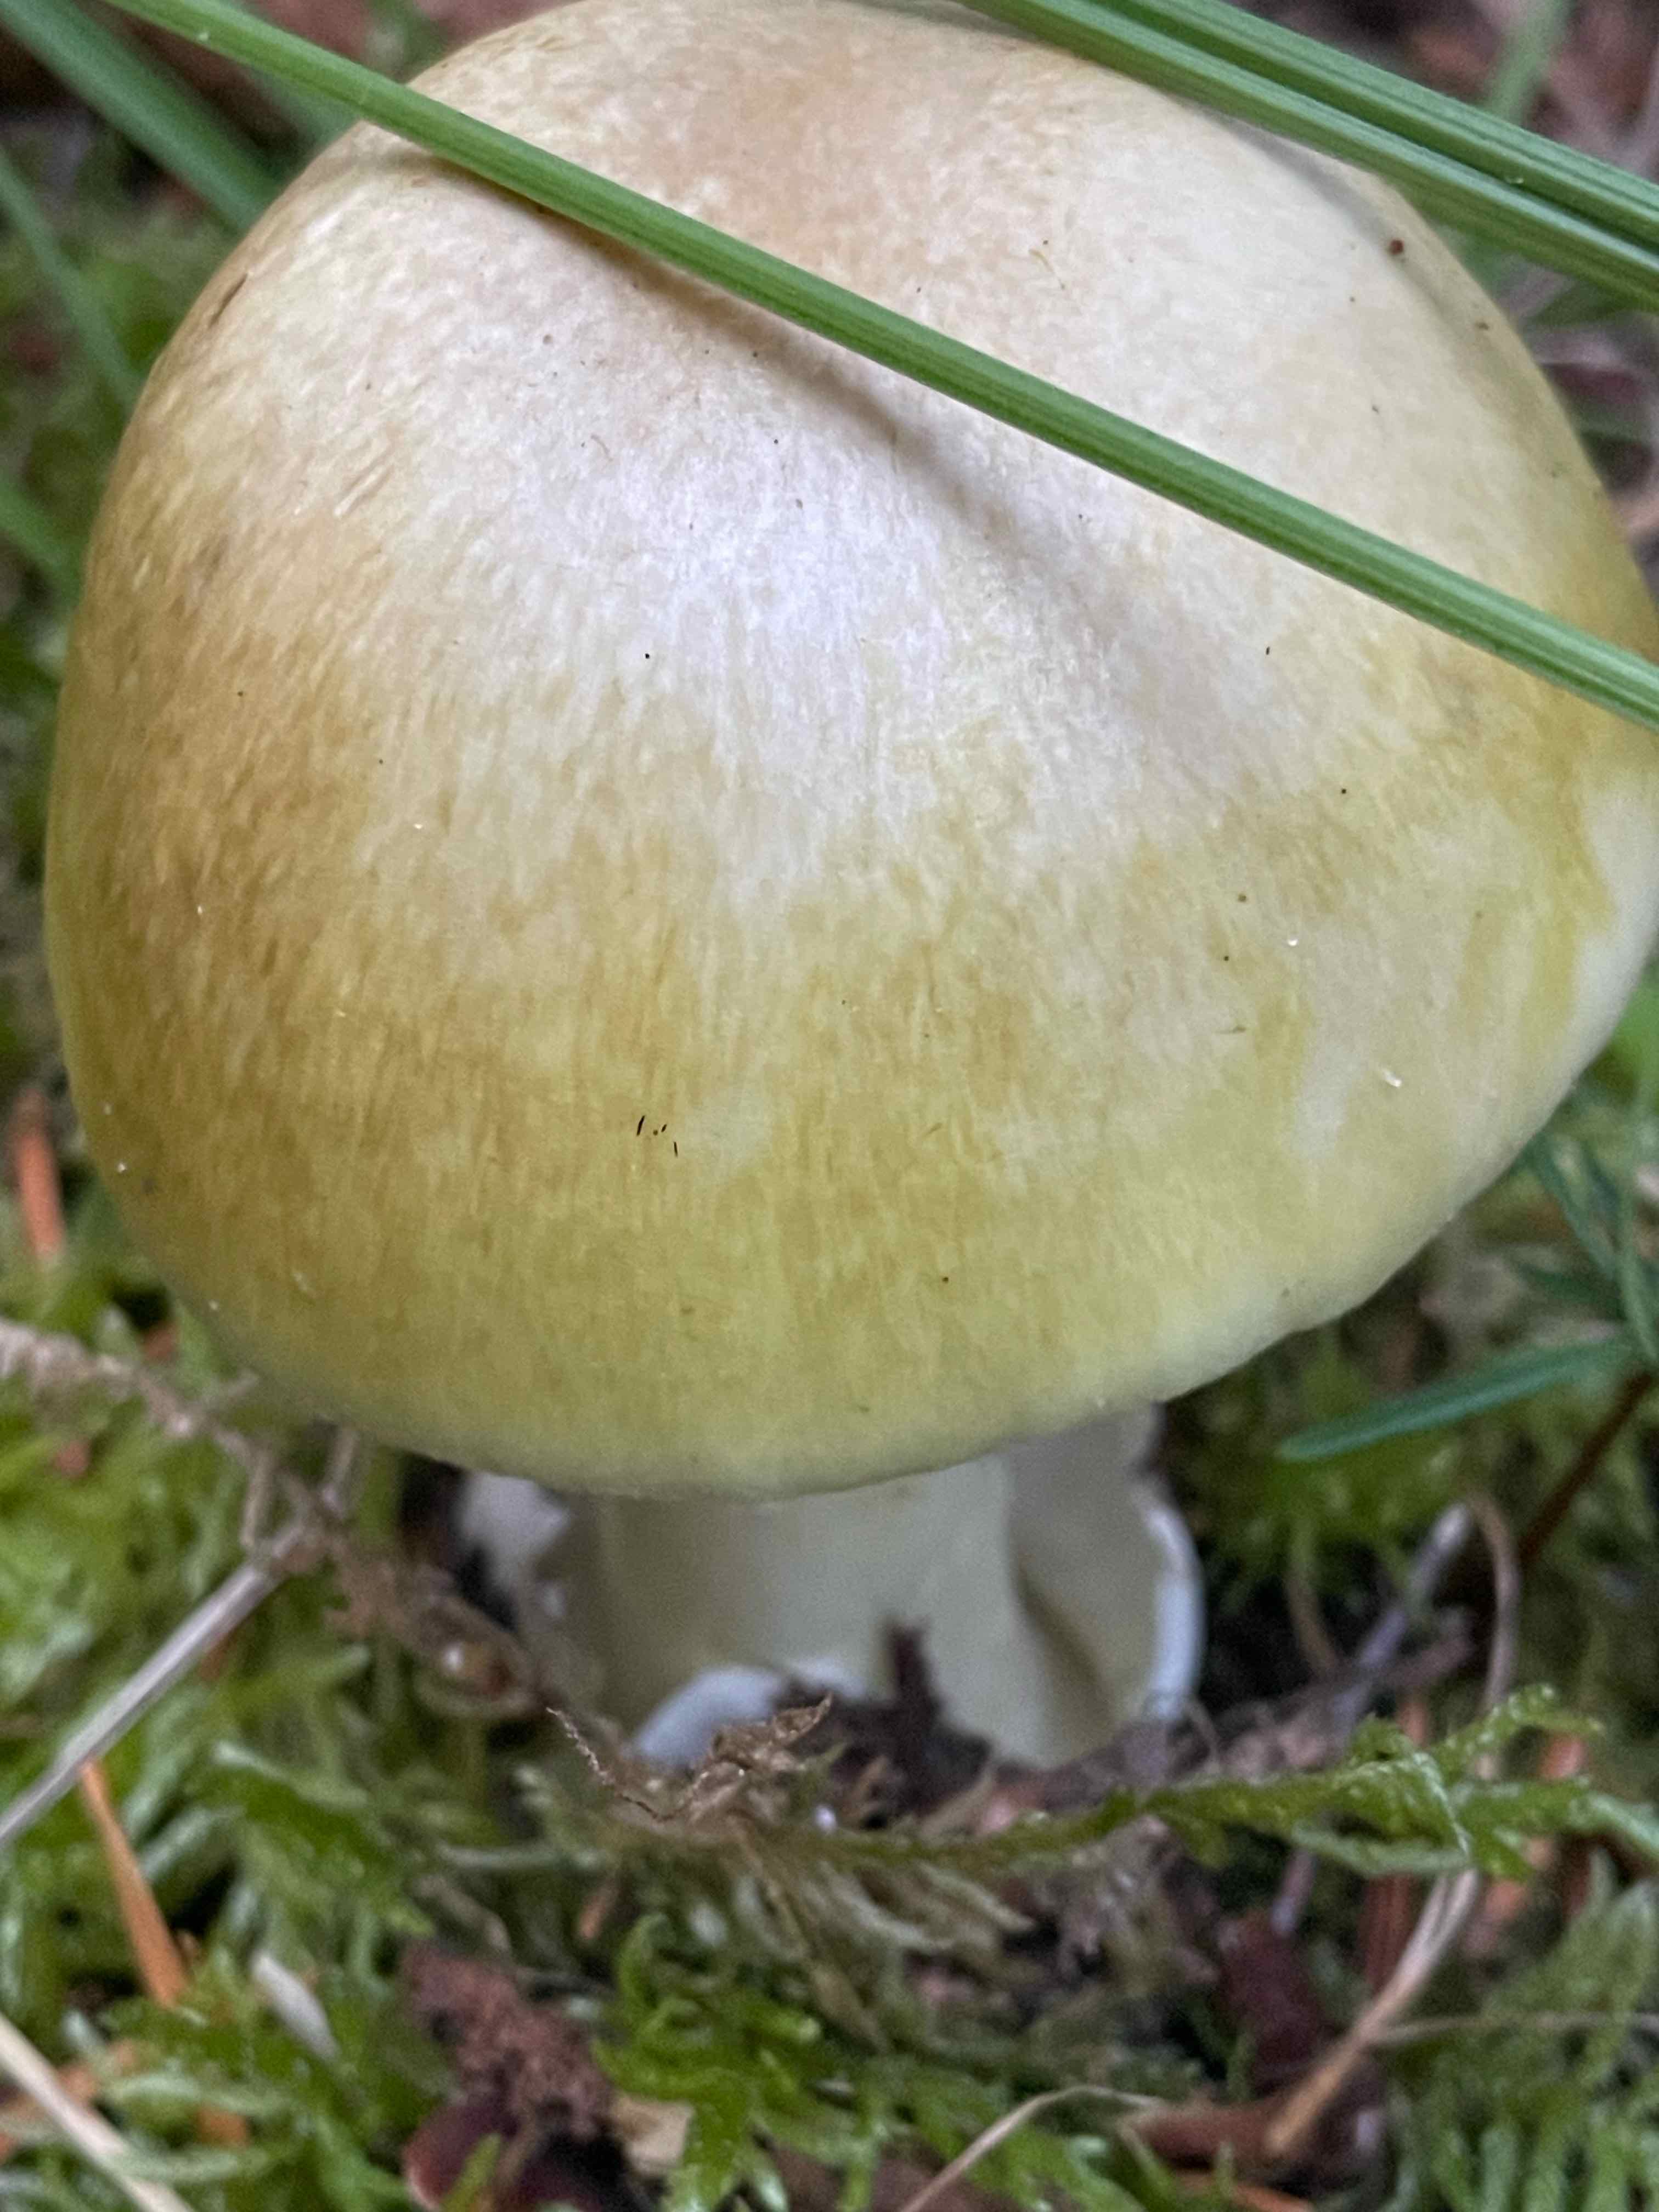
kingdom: Fungi
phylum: Basidiomycota
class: Agaricomycetes
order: Agaricales
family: Amanitaceae
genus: Amanita
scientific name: Amanita phalloides
